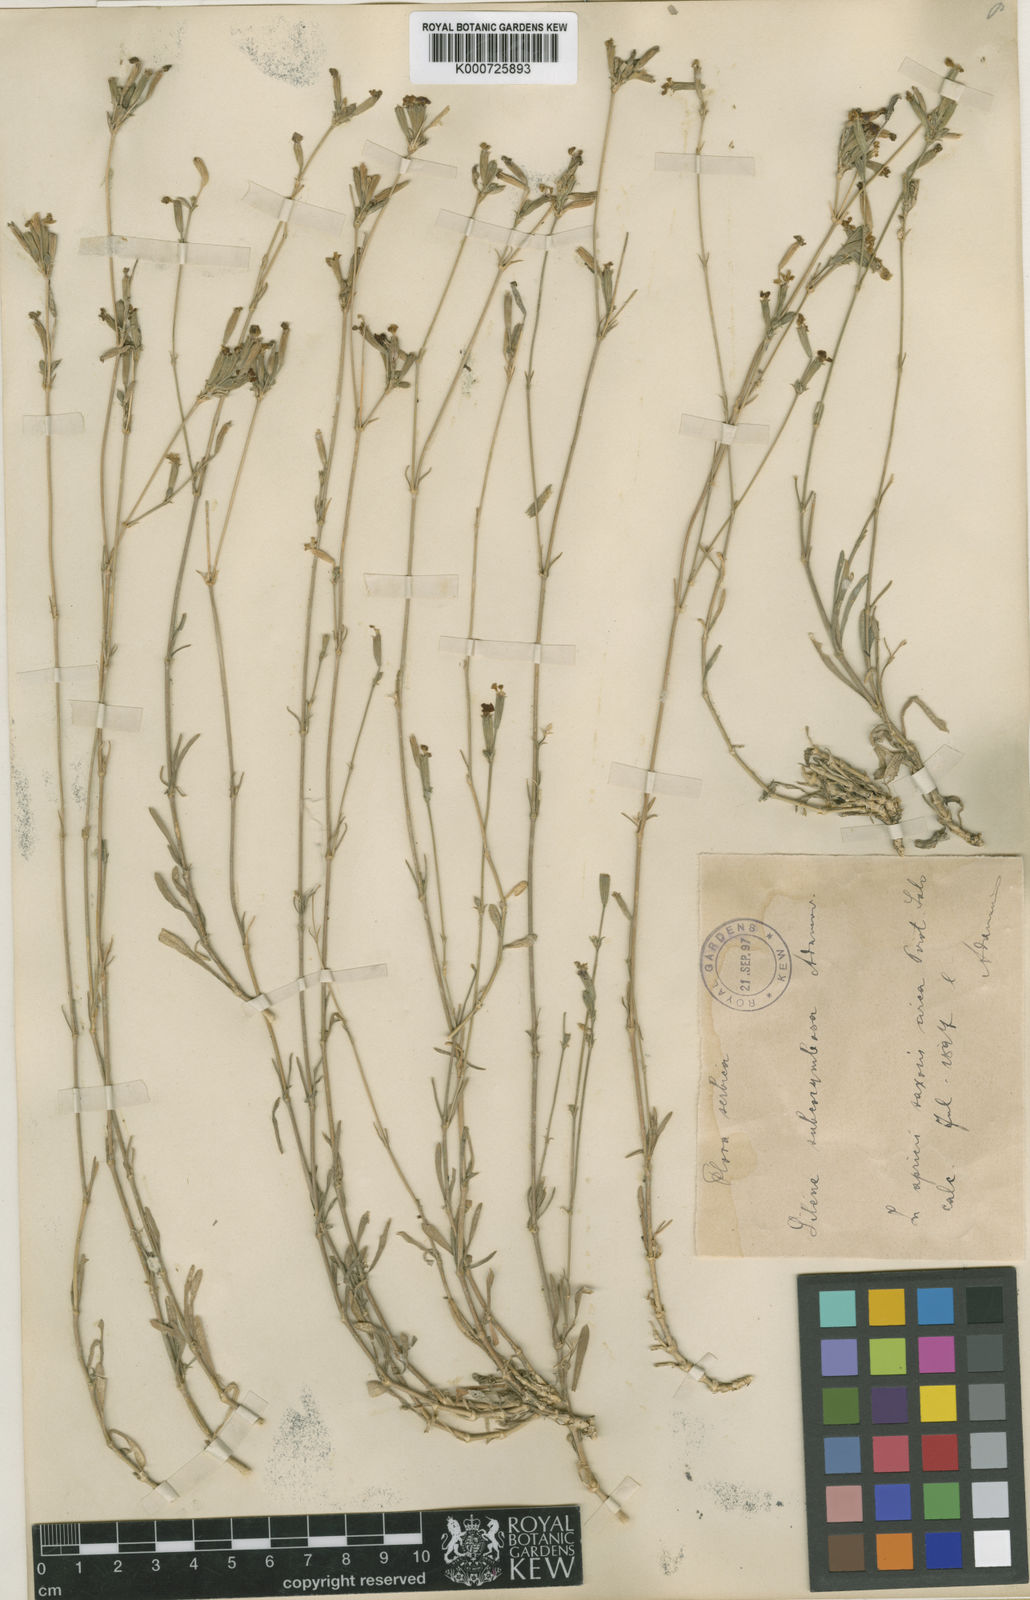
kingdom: Plantae
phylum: Tracheophyta
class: Magnoliopsida
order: Caryophyllales
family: Caryophyllaceae
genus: Silene
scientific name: Silene flavescens
